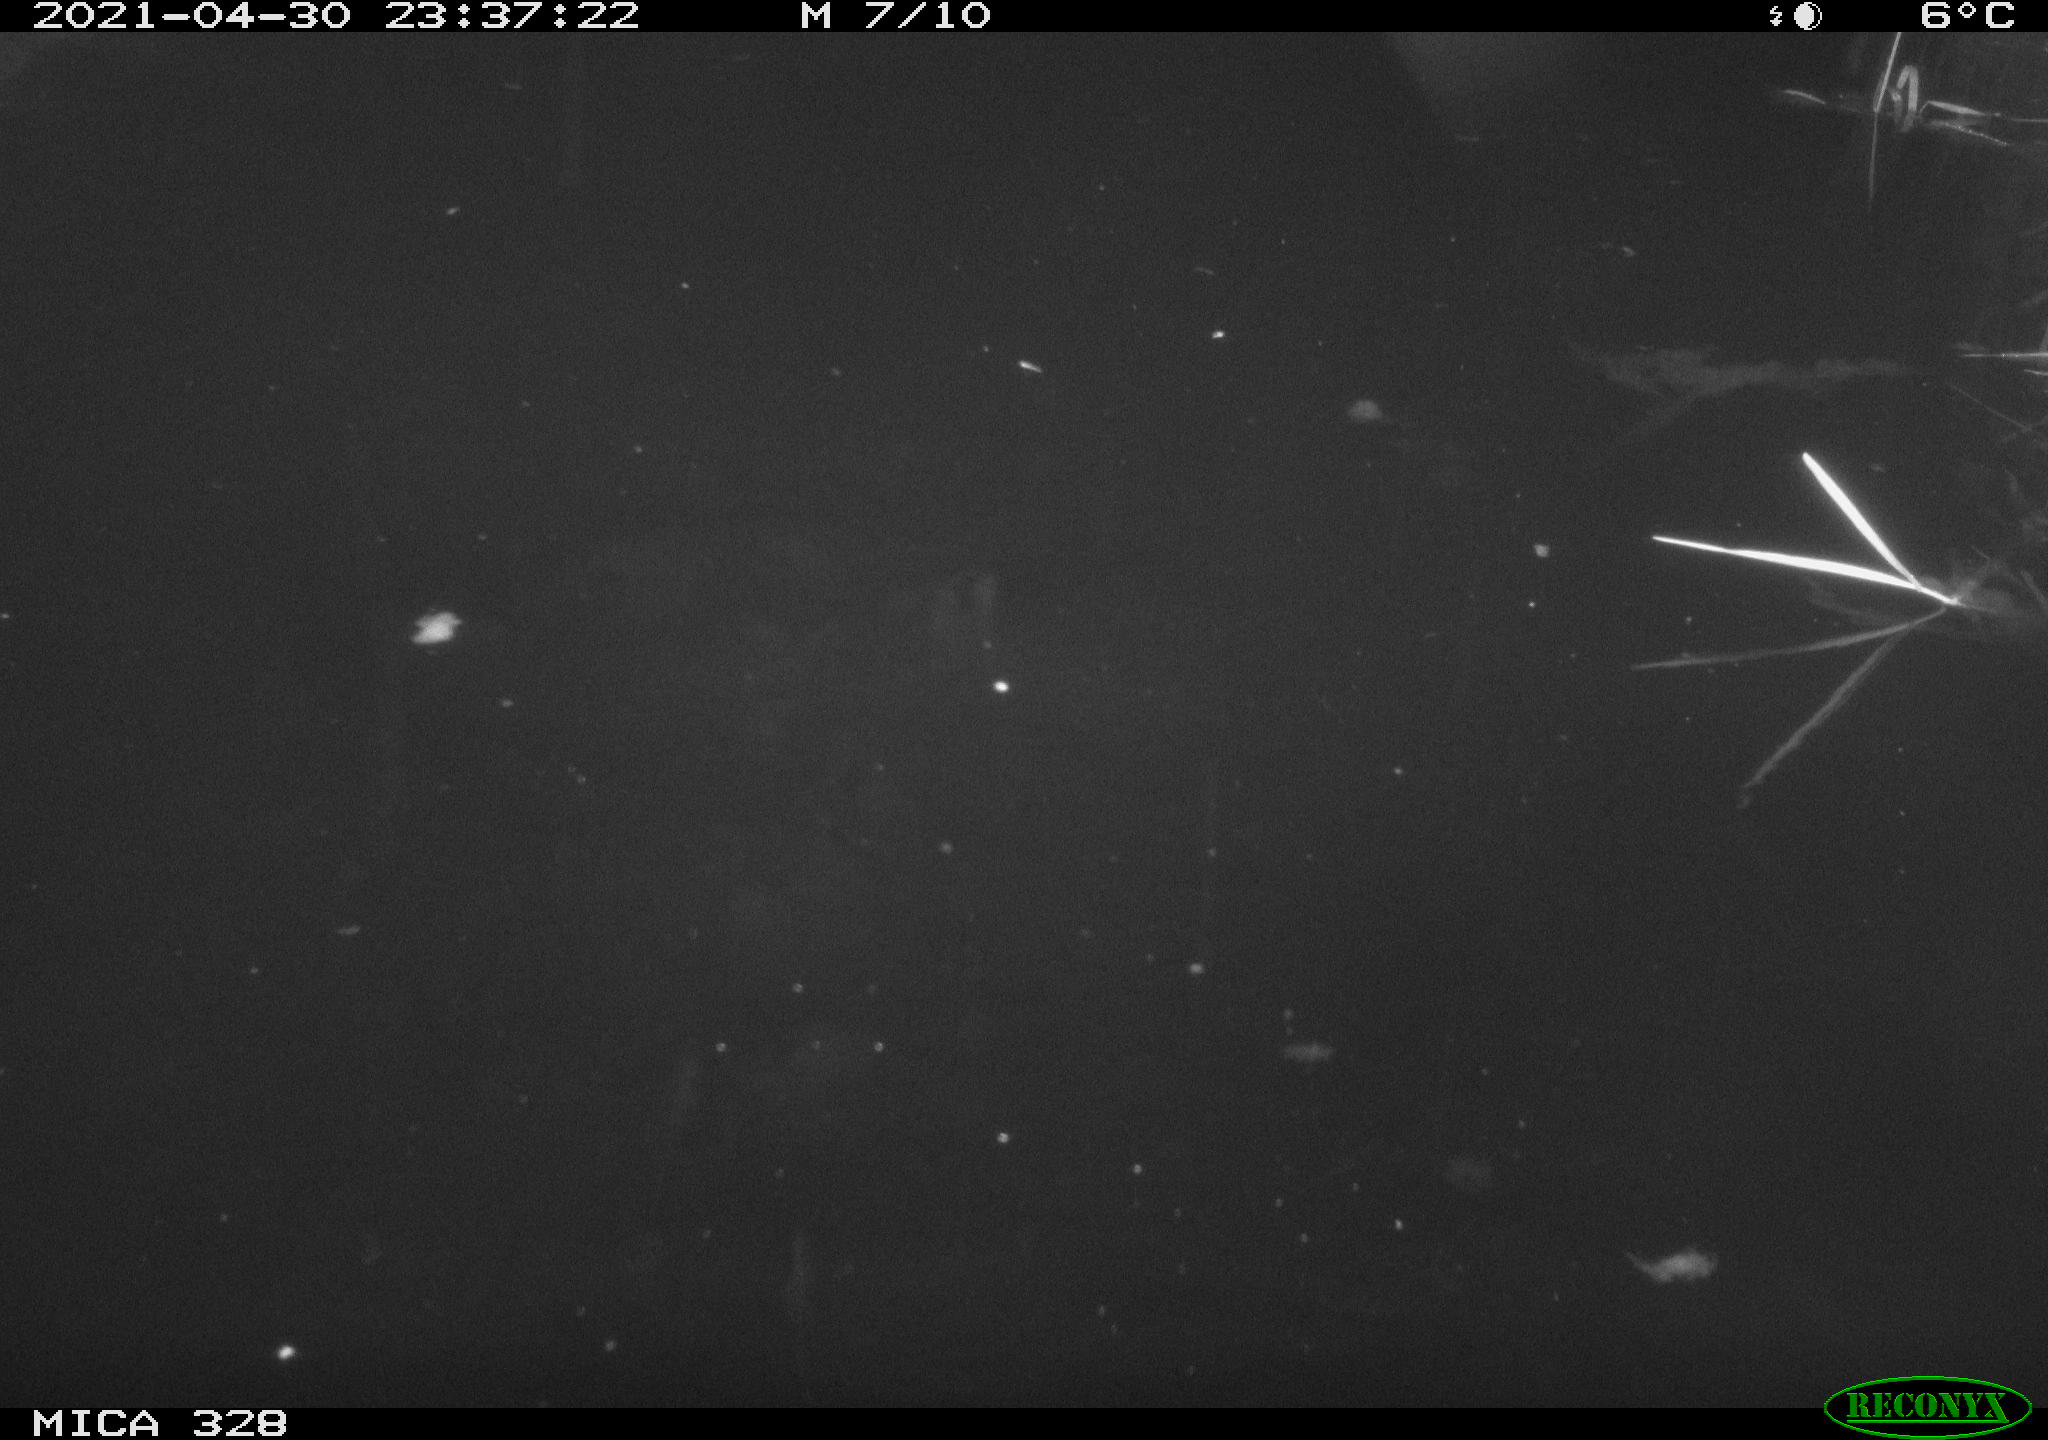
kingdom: Animalia
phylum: Chordata
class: Mammalia
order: Rodentia
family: Cricetidae
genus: Ondatra
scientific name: Ondatra zibethicus
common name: Muskrat
